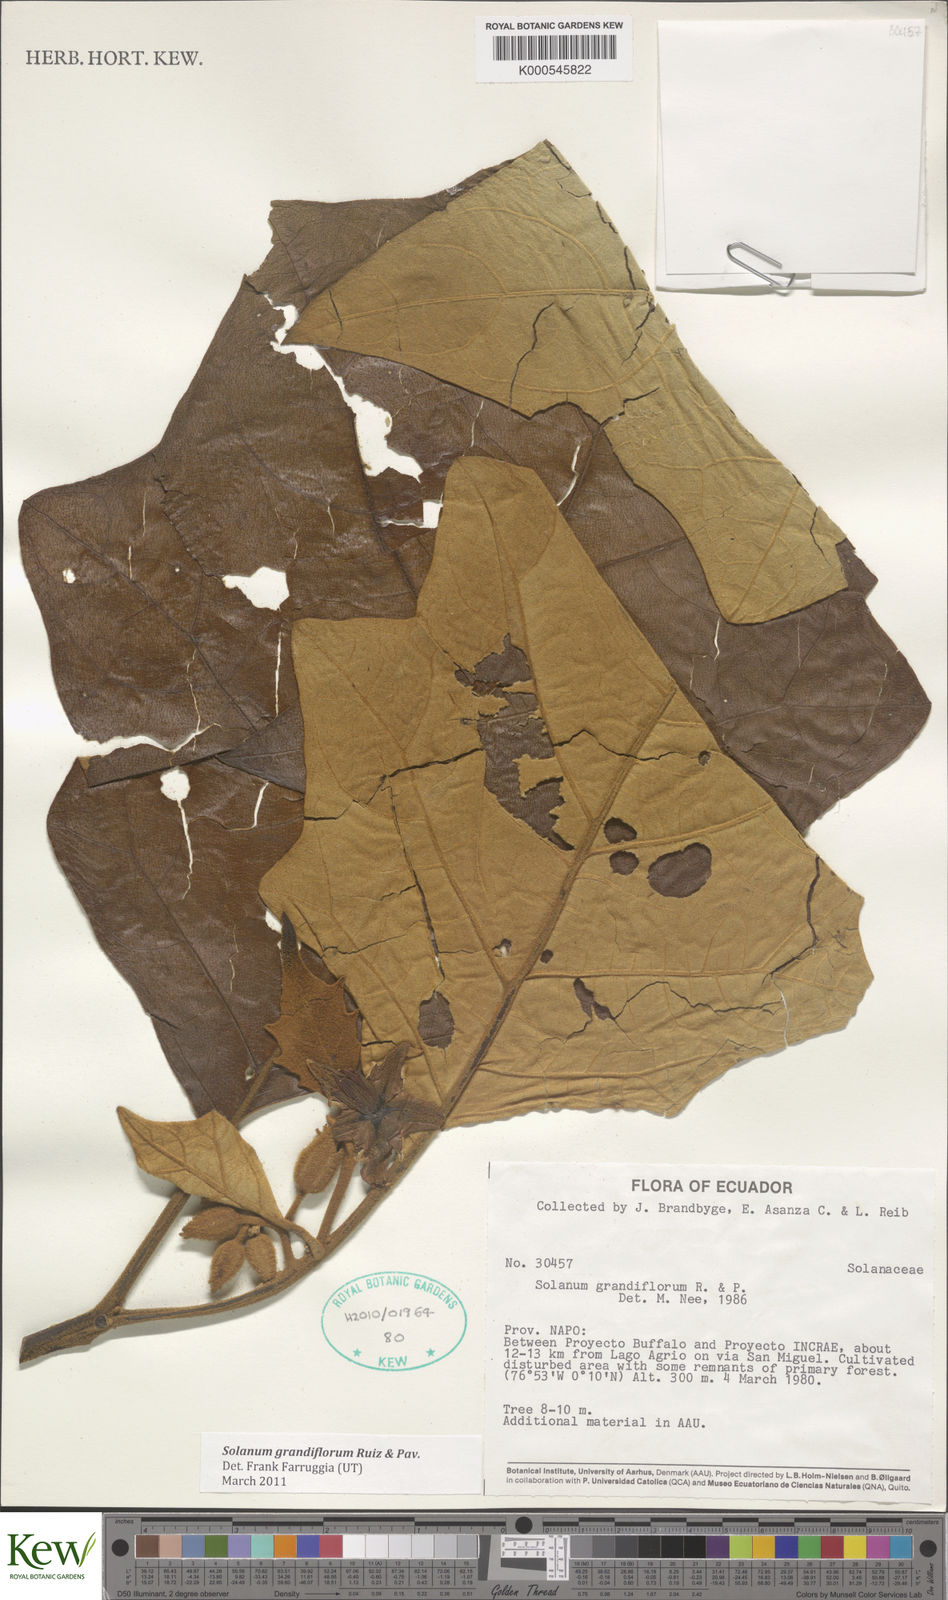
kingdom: Plantae
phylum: Tracheophyta
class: Magnoliopsida
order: Solanales
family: Solanaceae
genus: Solanum
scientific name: Solanum grandiflorum
